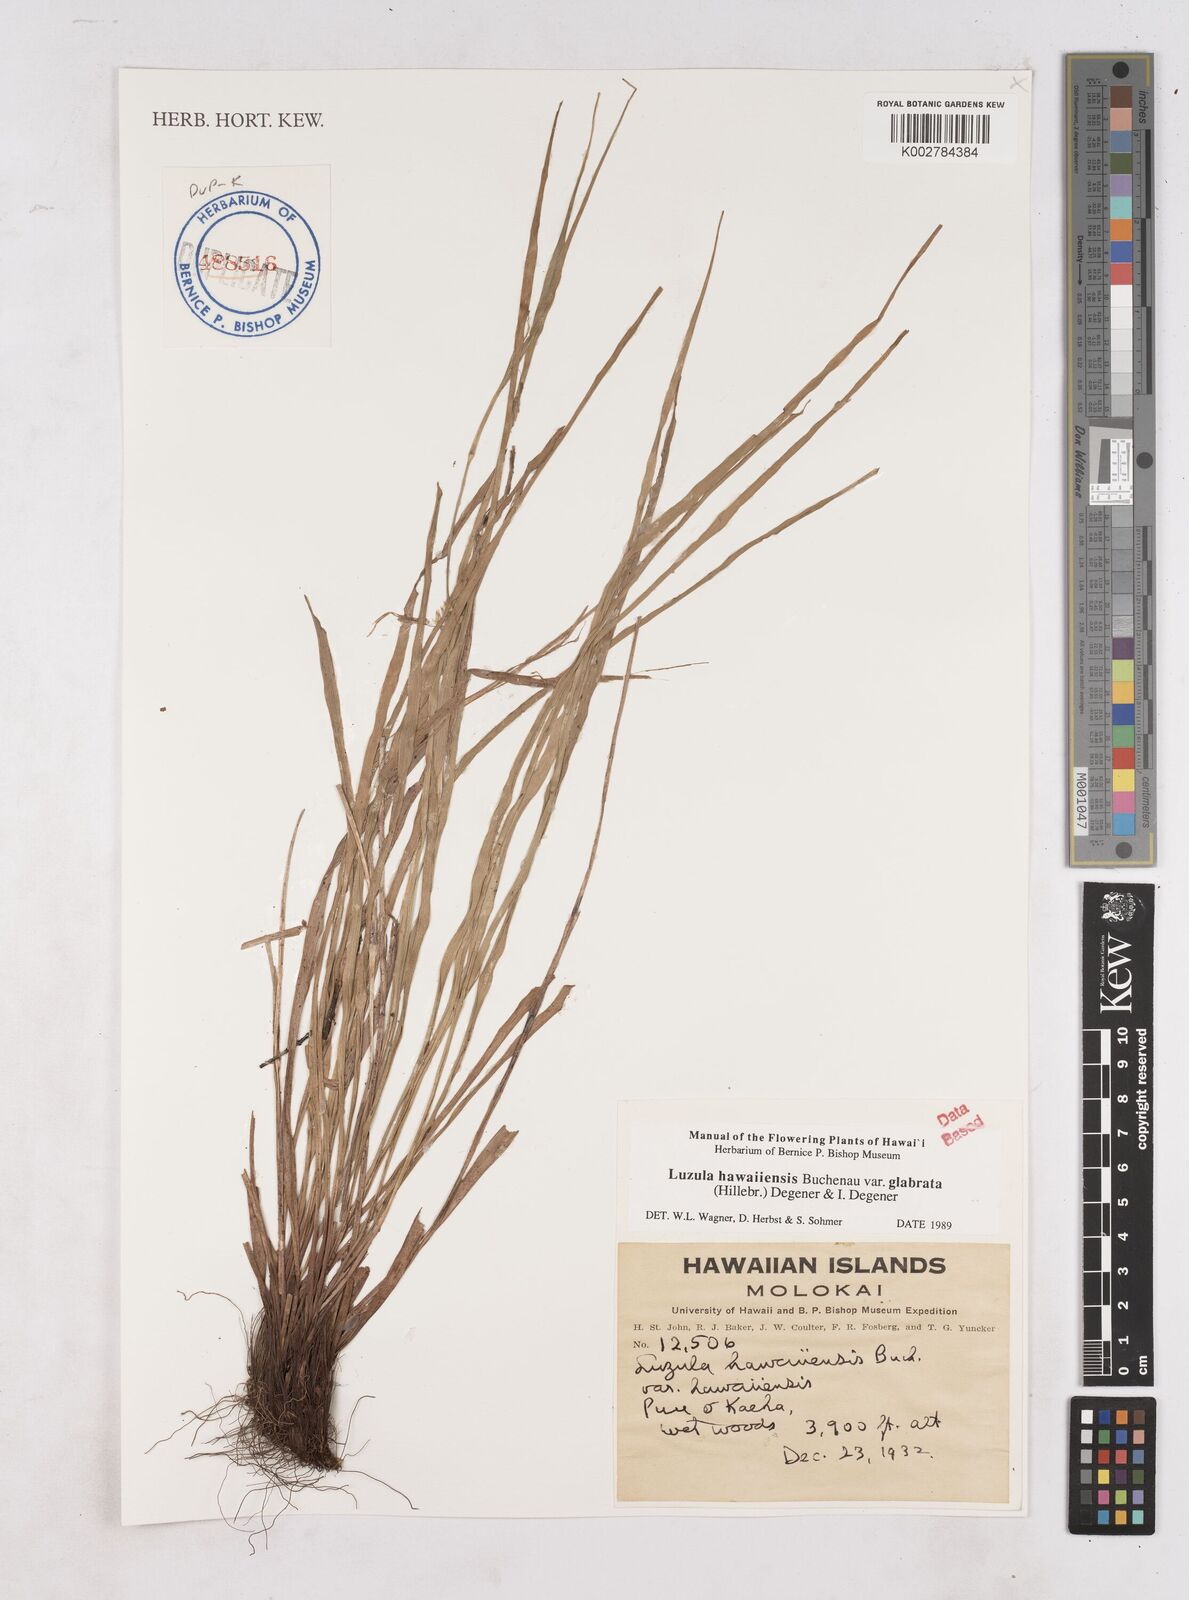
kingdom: Plantae
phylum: Tracheophyta
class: Liliopsida
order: Poales
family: Juncaceae
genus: Luzula
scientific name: Luzula campestris
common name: Field wood-rush
